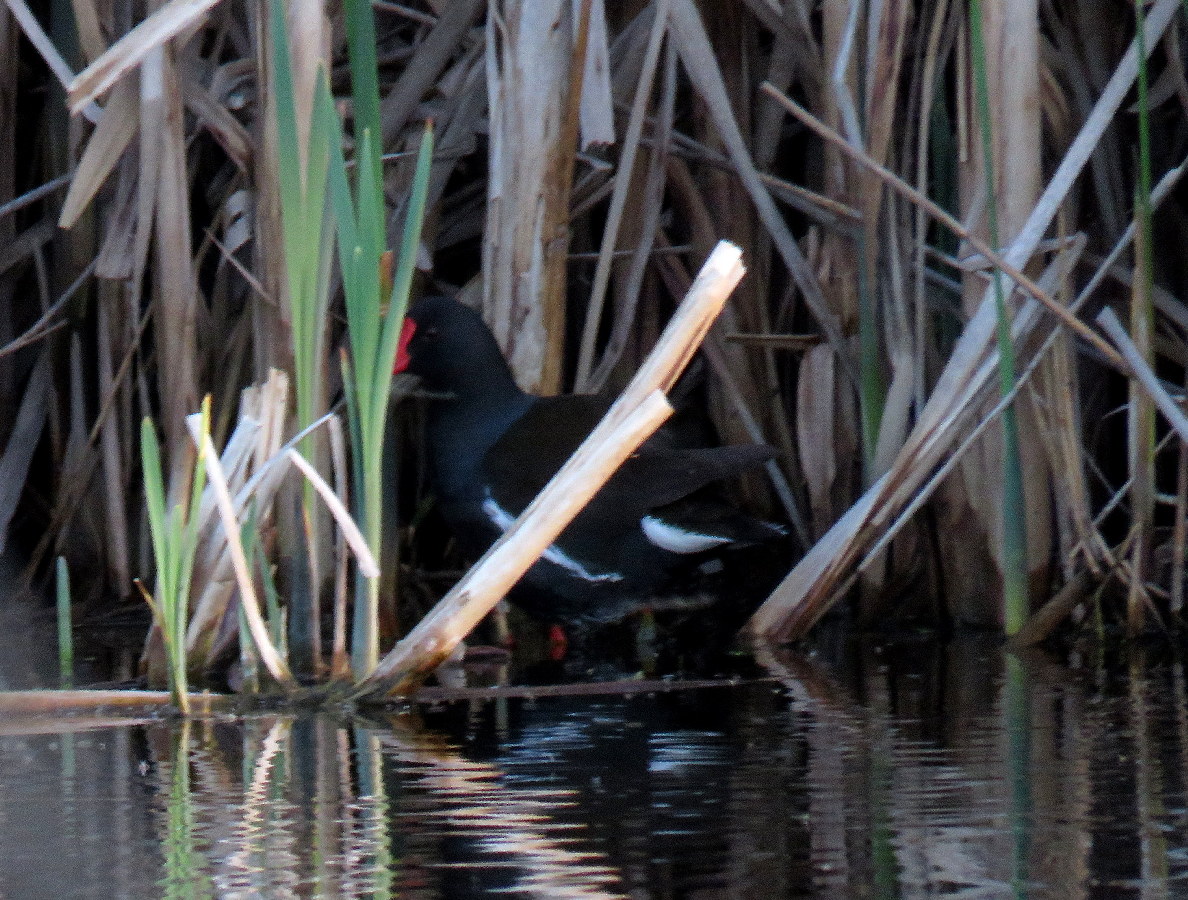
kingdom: Animalia
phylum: Chordata
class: Aves
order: Gruiformes
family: Rallidae
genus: Gallinula
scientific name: Gallinula chloropus
